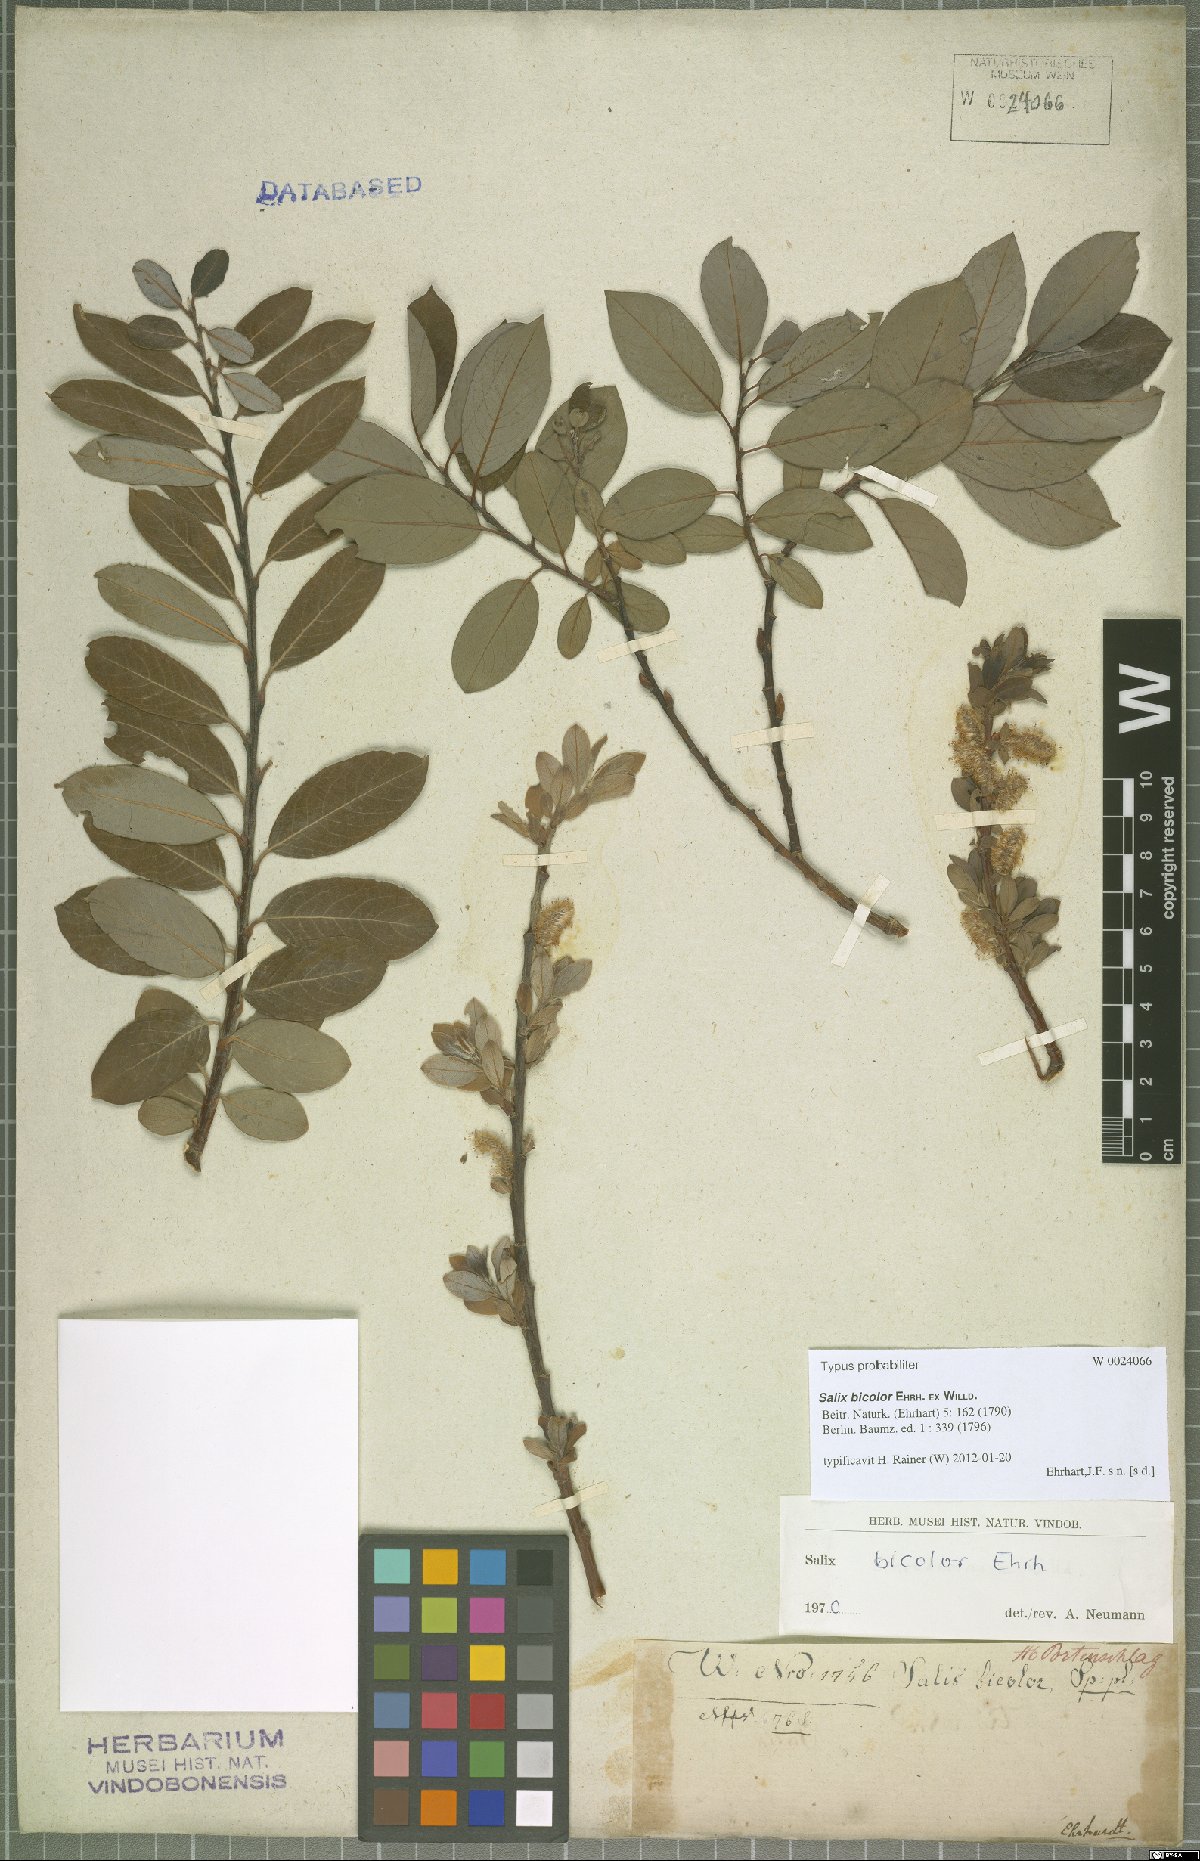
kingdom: Plantae
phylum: Tracheophyta
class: Magnoliopsida
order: Malpighiales
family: Salicaceae
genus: Salix
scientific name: Salix bicolor
